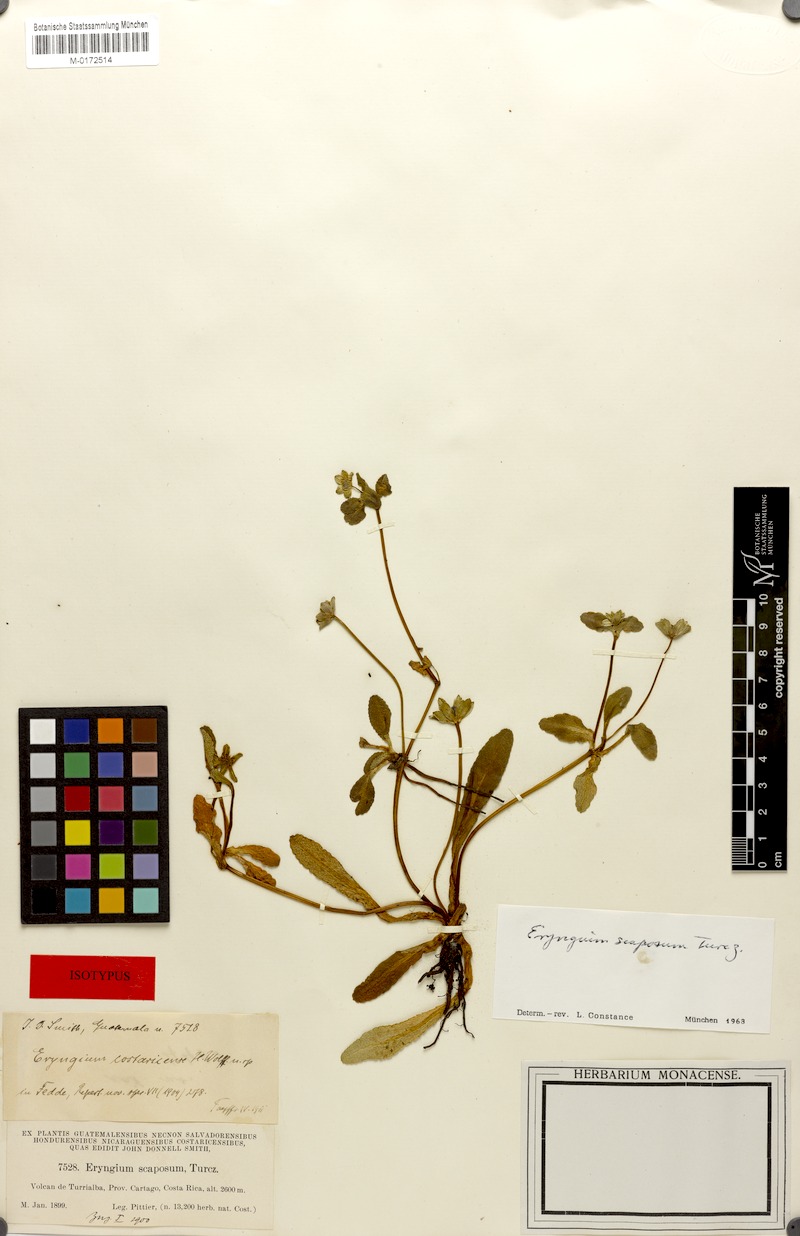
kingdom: Plantae
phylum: Tracheophyta
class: Magnoliopsida
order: Apiales
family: Apiaceae
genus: Eryngium
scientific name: Eryngium scaposum
